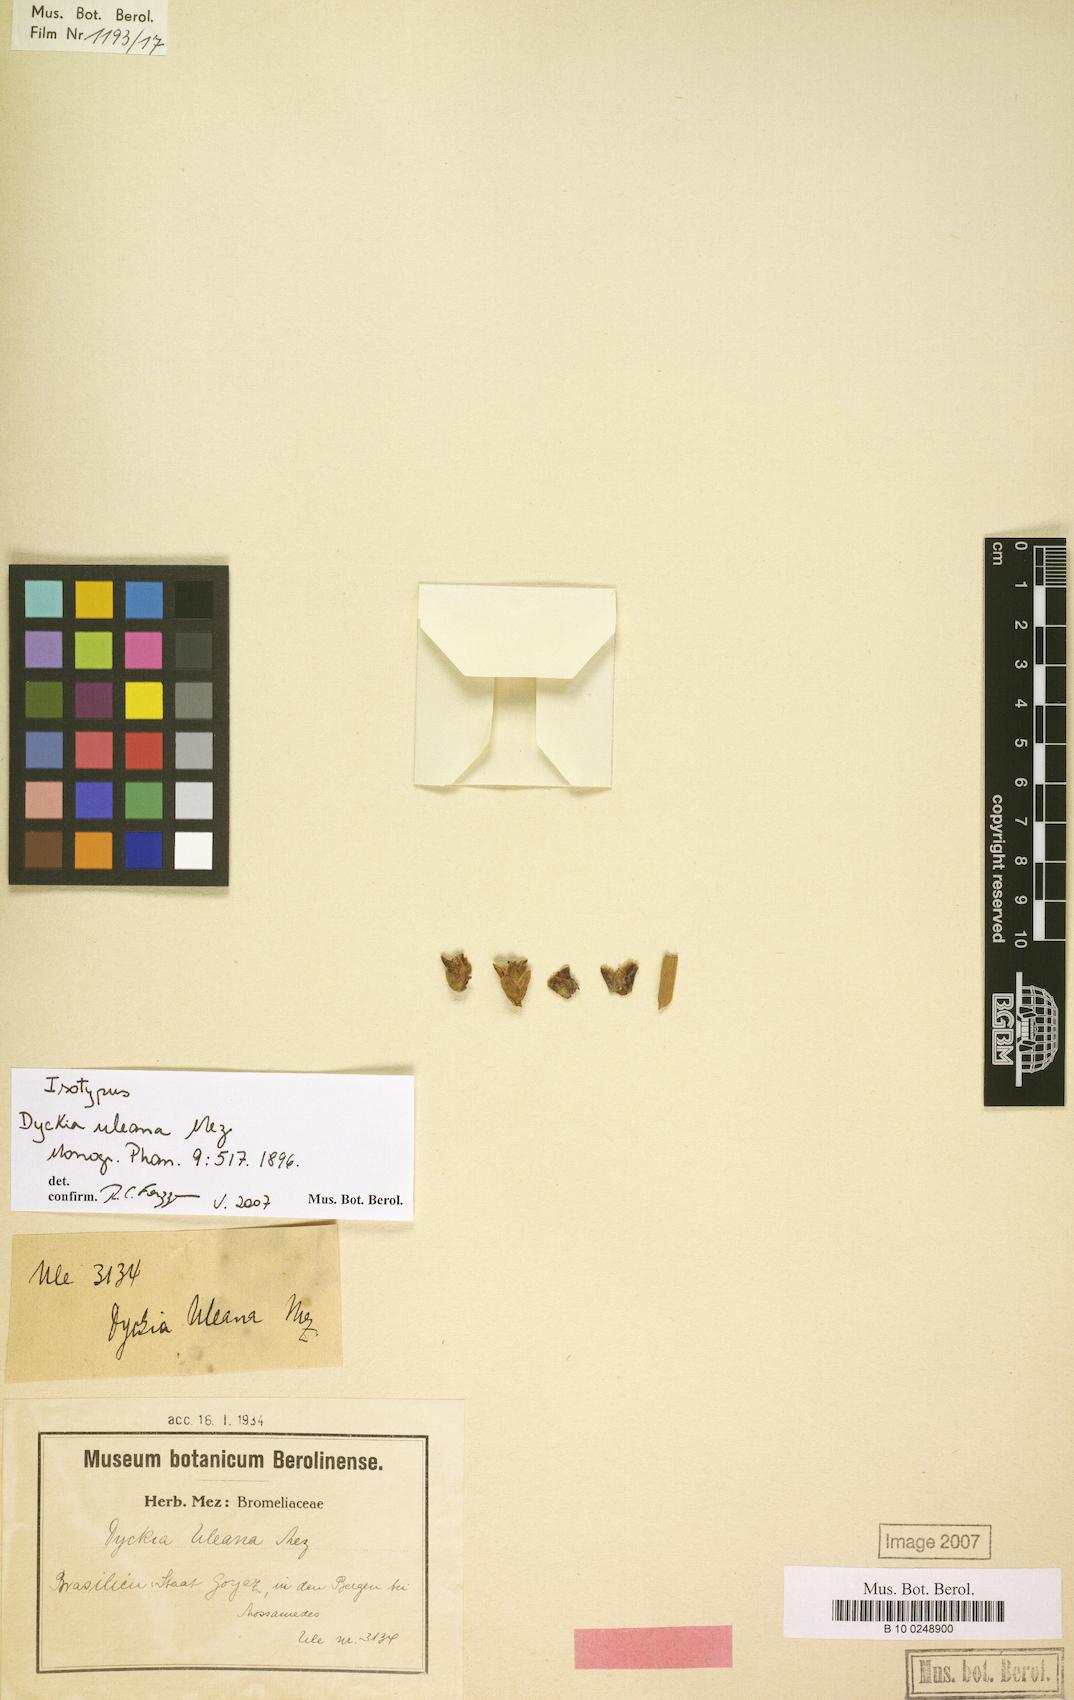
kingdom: Plantae
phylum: Tracheophyta
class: Liliopsida
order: Poales
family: Bromeliaceae
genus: Dyckia
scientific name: Dyckia uleana
